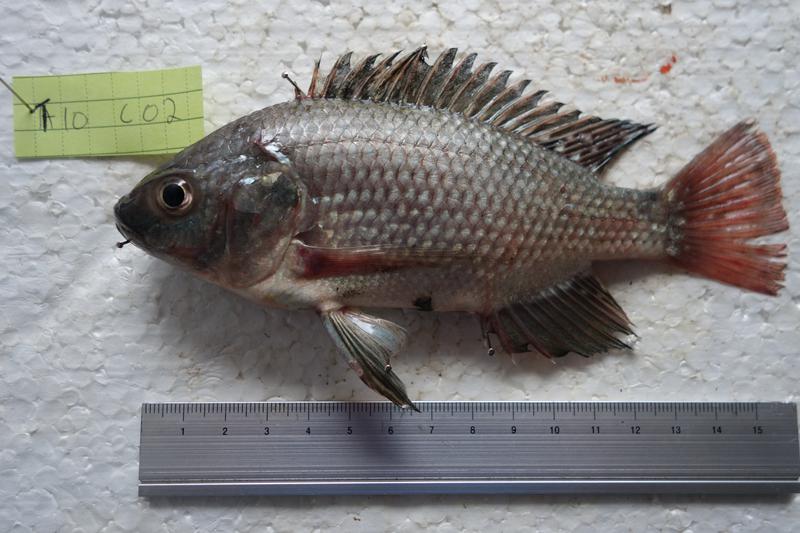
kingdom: Animalia
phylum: Chordata
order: Perciformes
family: Cichlidae
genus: Oreochromis
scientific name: Oreochromis esculentus
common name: Carp
